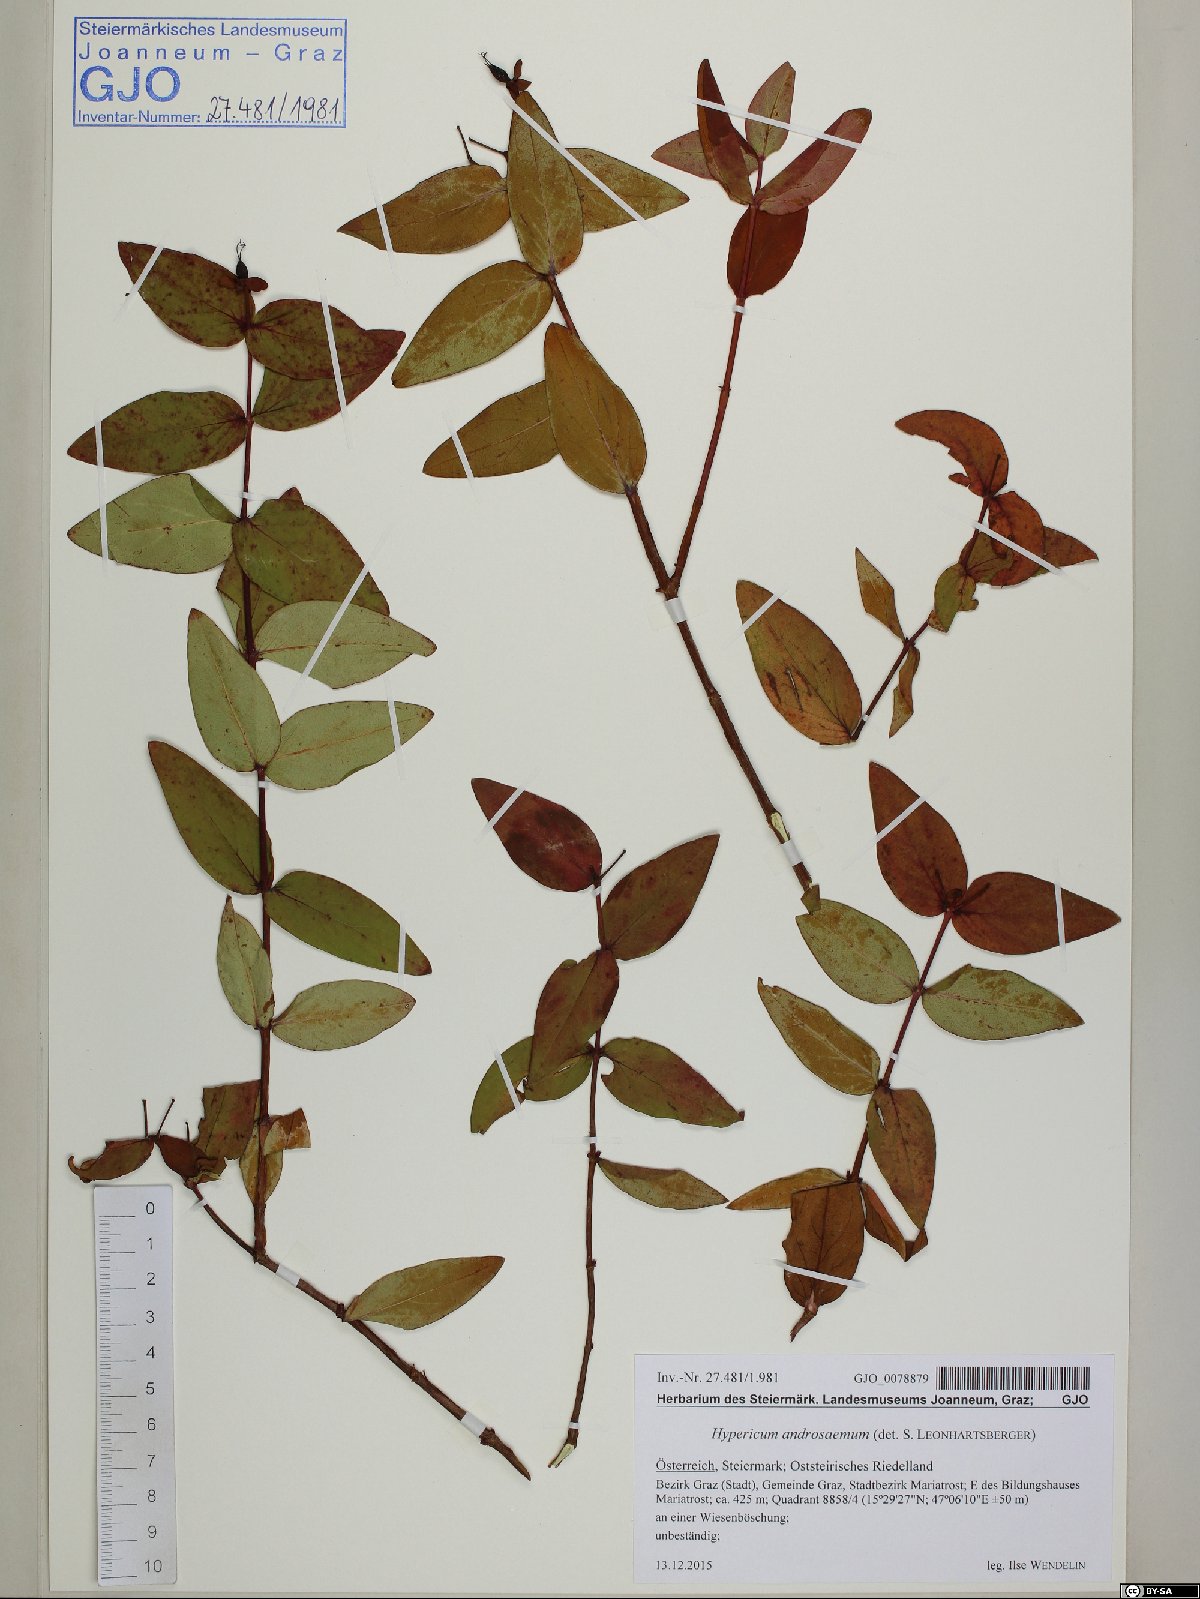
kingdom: Plantae
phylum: Tracheophyta
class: Magnoliopsida
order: Malpighiales
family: Hypericaceae
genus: Hypericum
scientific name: Hypericum androsaemum
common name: Sweet-amber
